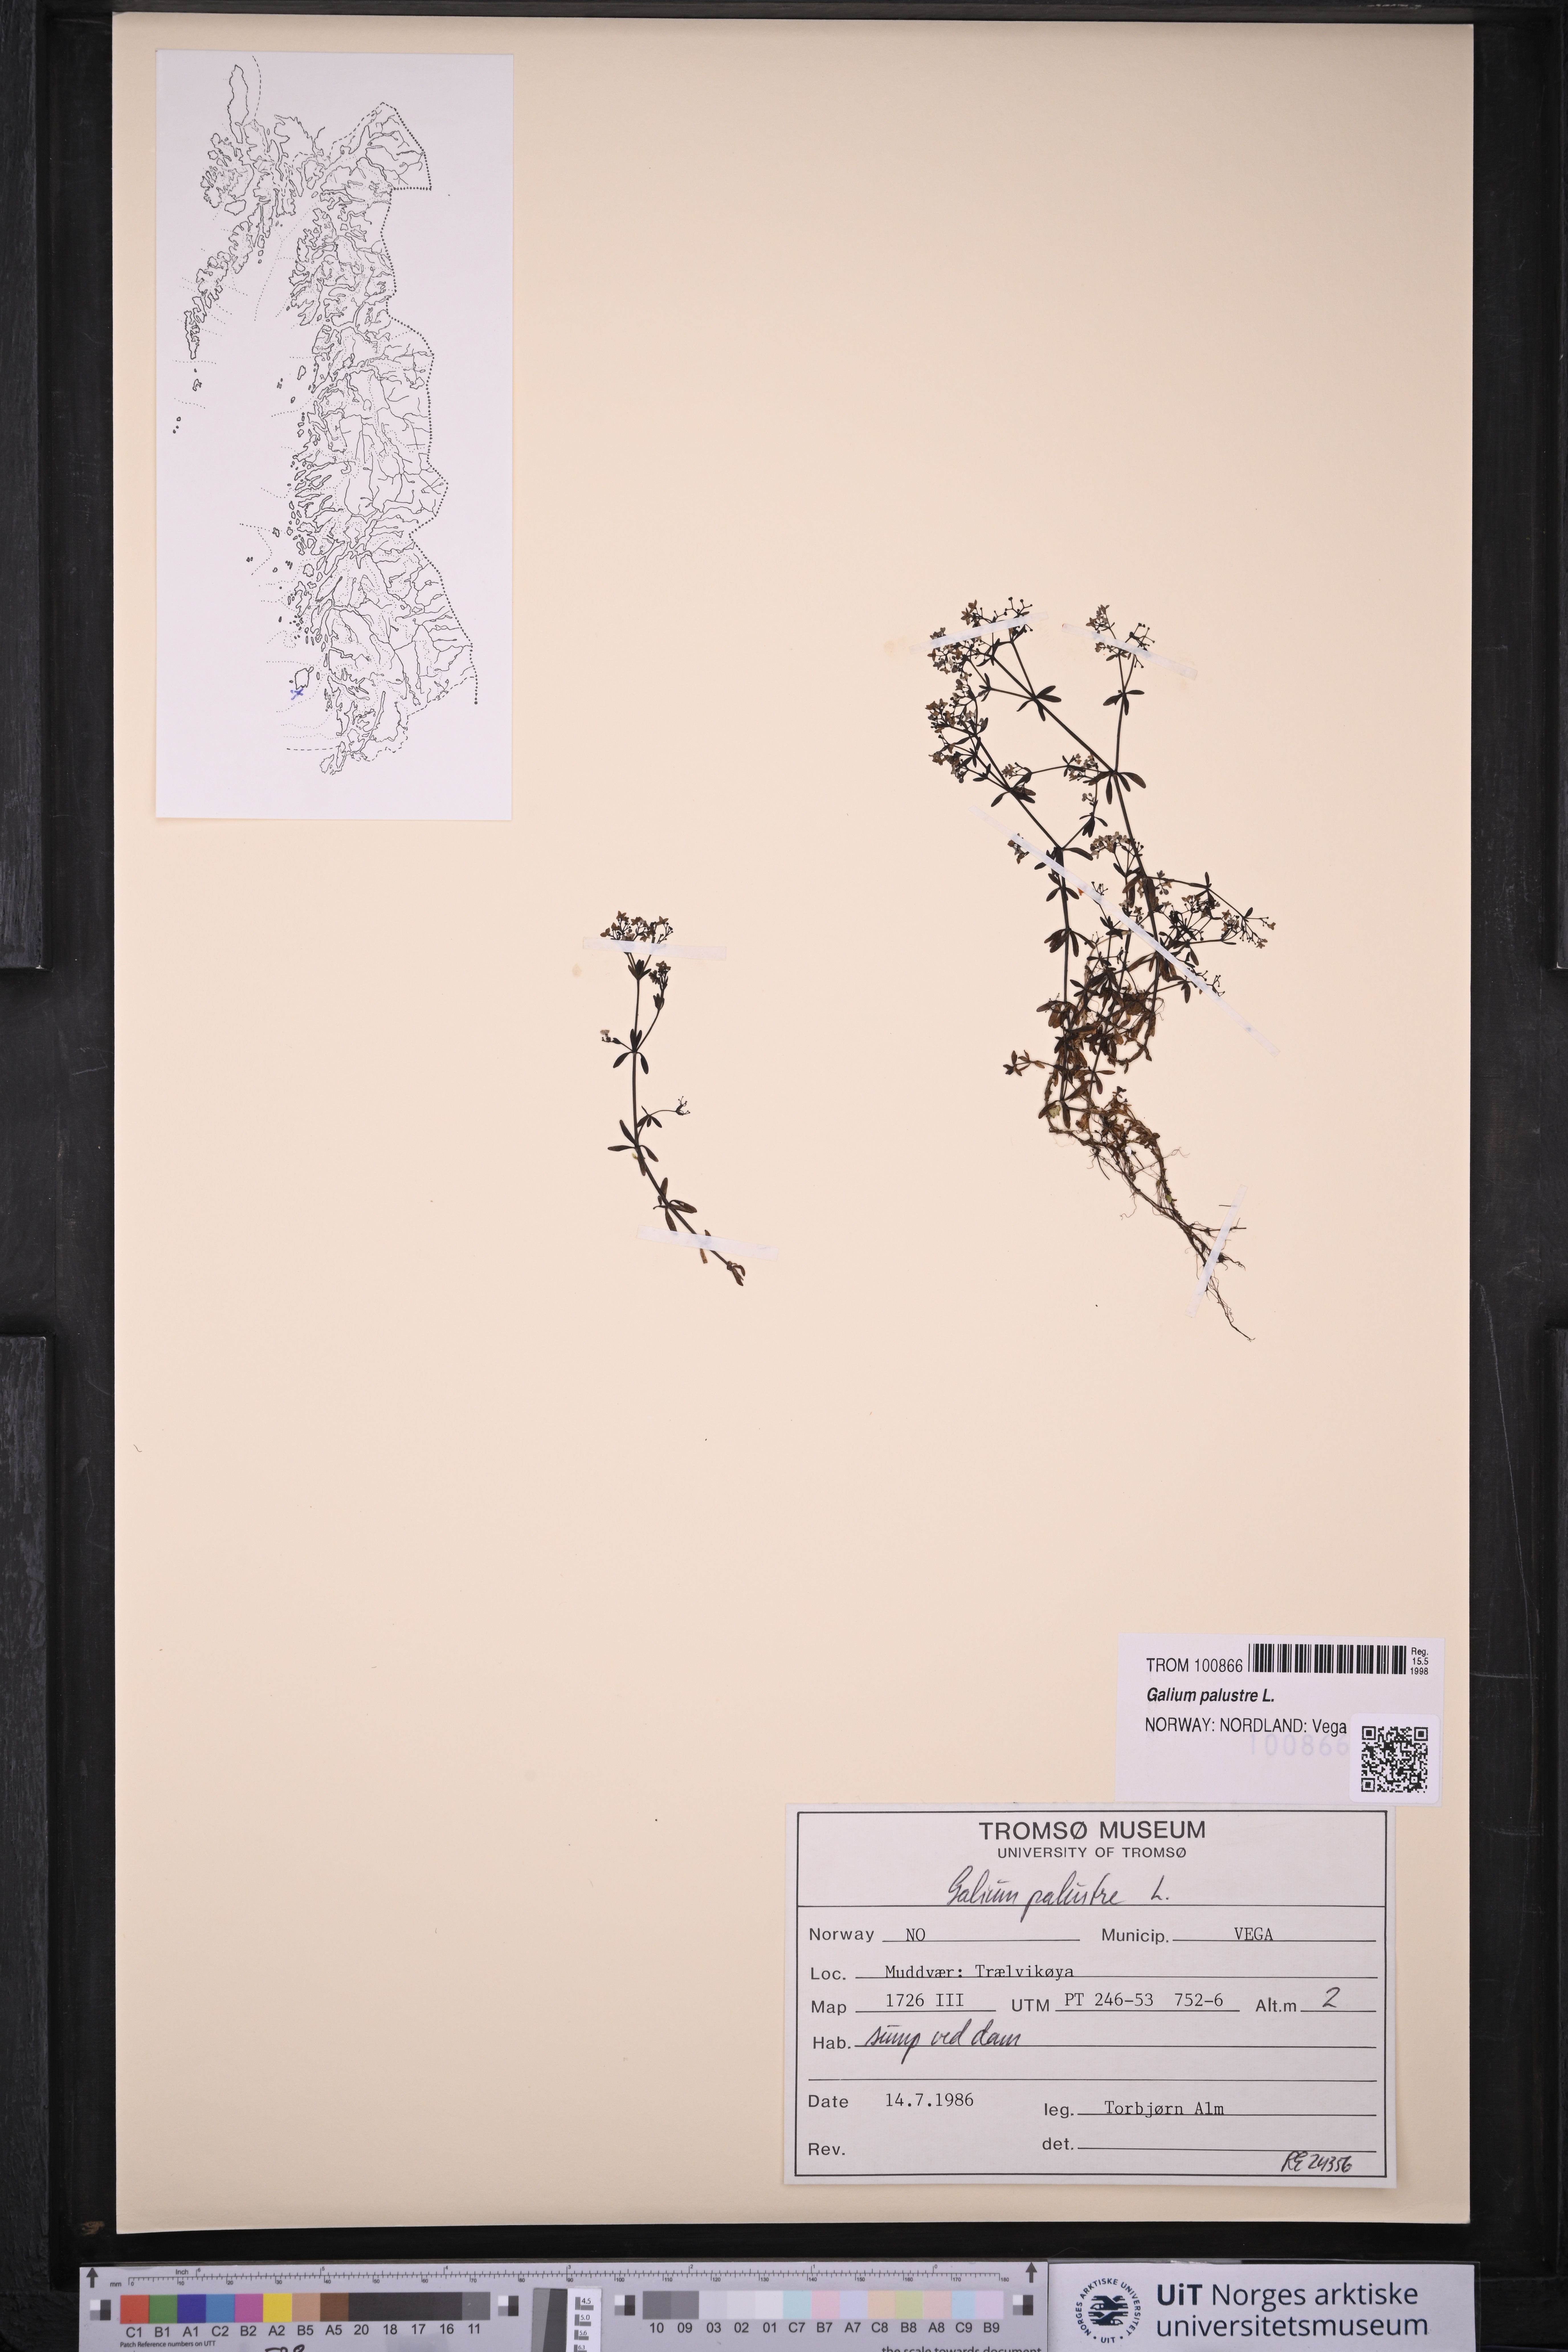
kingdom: Plantae
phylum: Tracheophyta
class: Magnoliopsida
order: Gentianales
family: Rubiaceae
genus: Galium
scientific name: Galium palustre
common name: Common marsh-bedstraw
